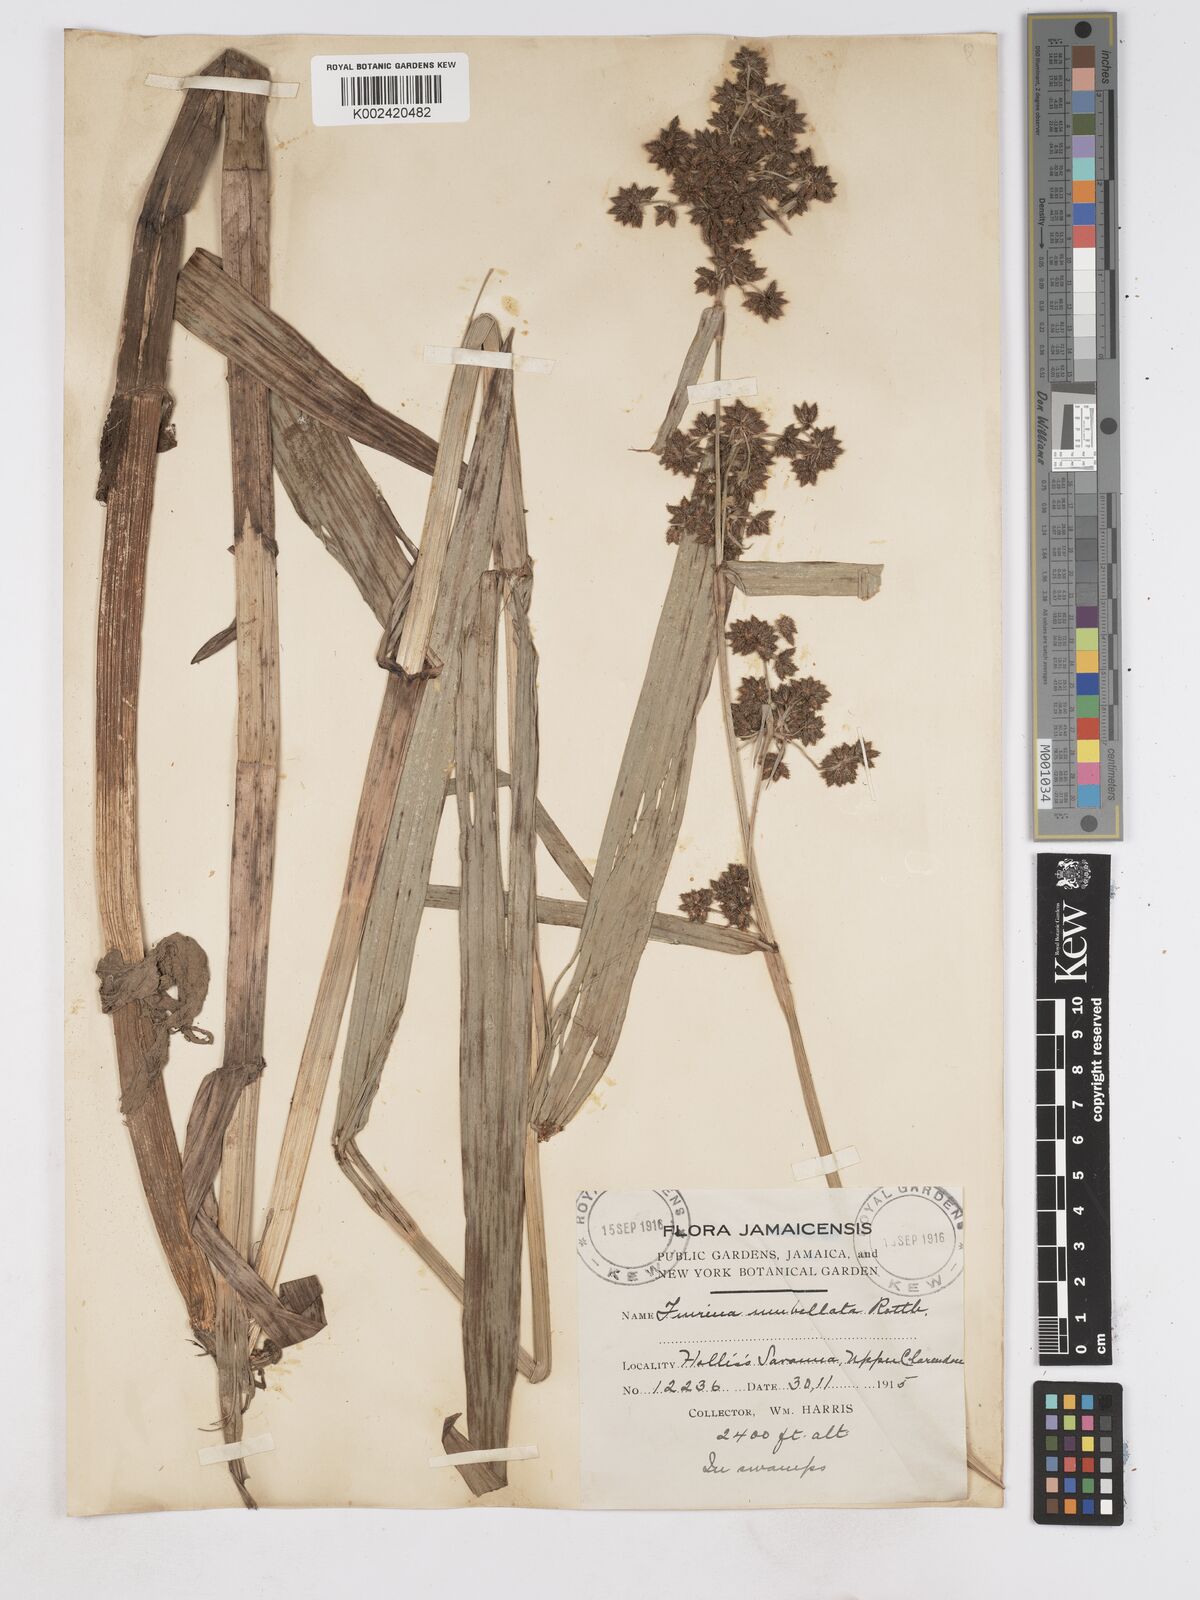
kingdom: Plantae
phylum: Tracheophyta
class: Liliopsida
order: Poales
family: Cyperaceae
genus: Fuirena
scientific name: Fuirena umbellata
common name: Yefen
